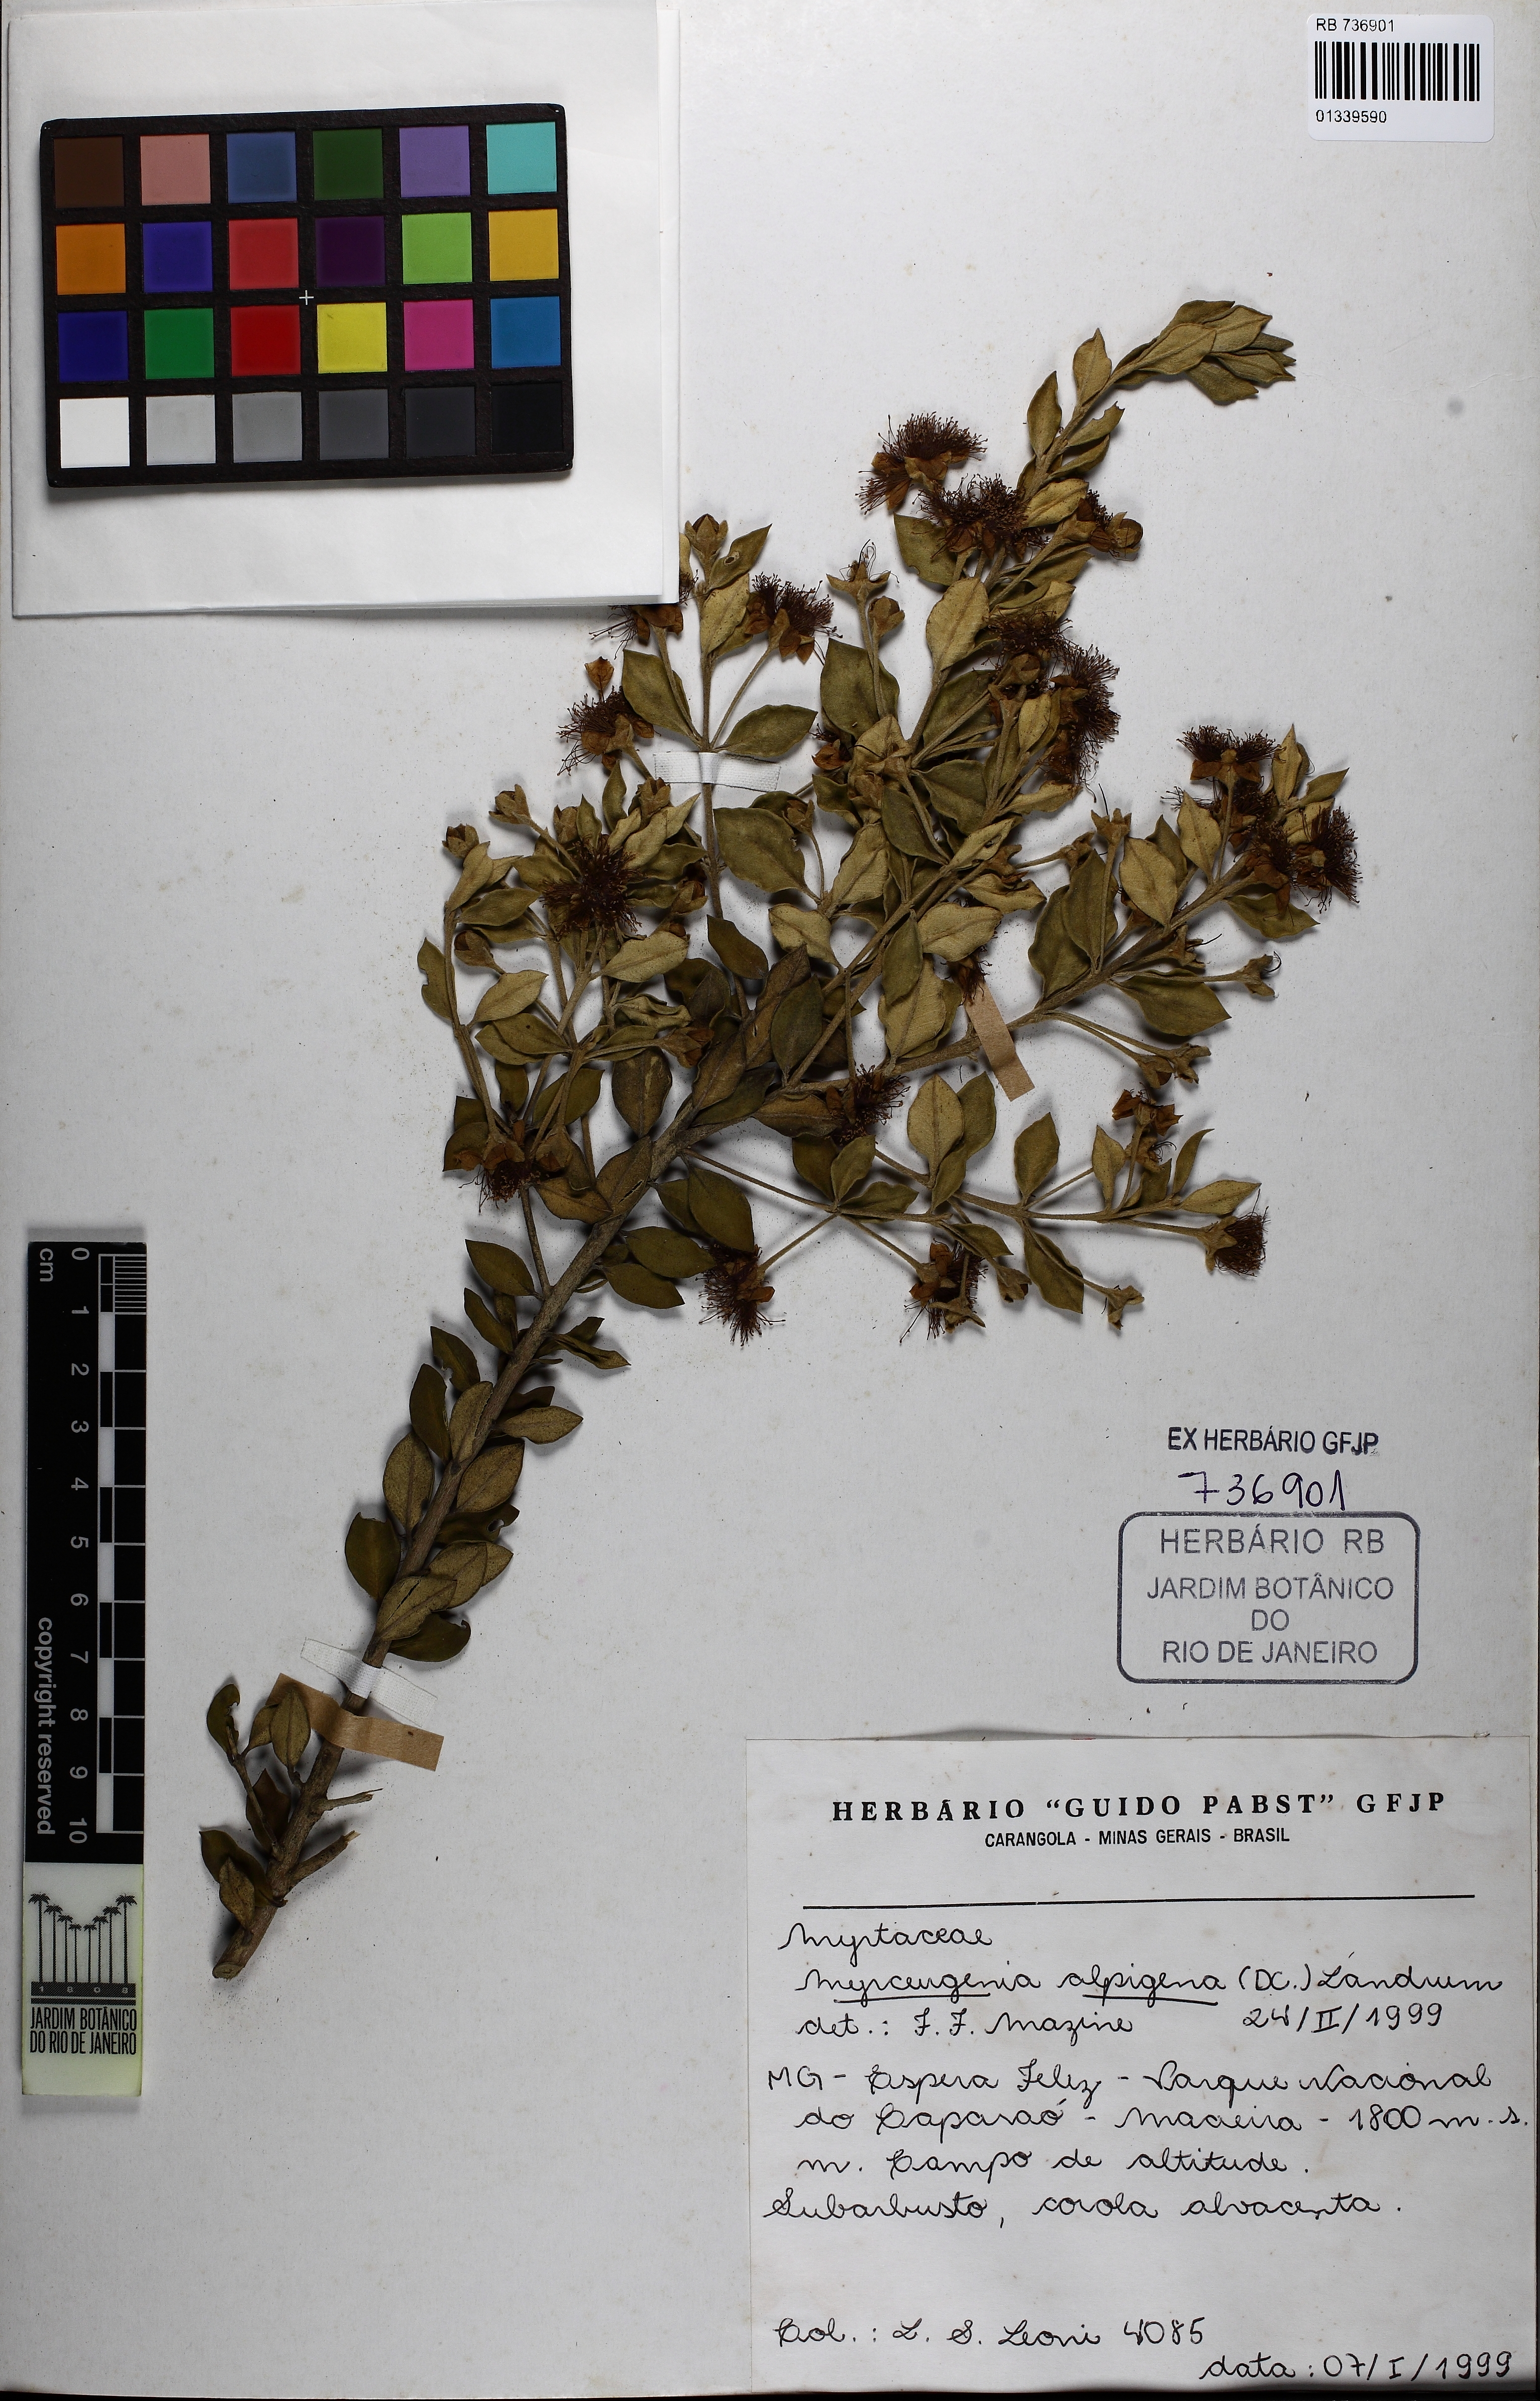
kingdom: Plantae
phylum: Tracheophyta
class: Magnoliopsida
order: Myrtales
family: Myrtaceae
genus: Myrceugenia
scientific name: Myrceugenia alpigena
